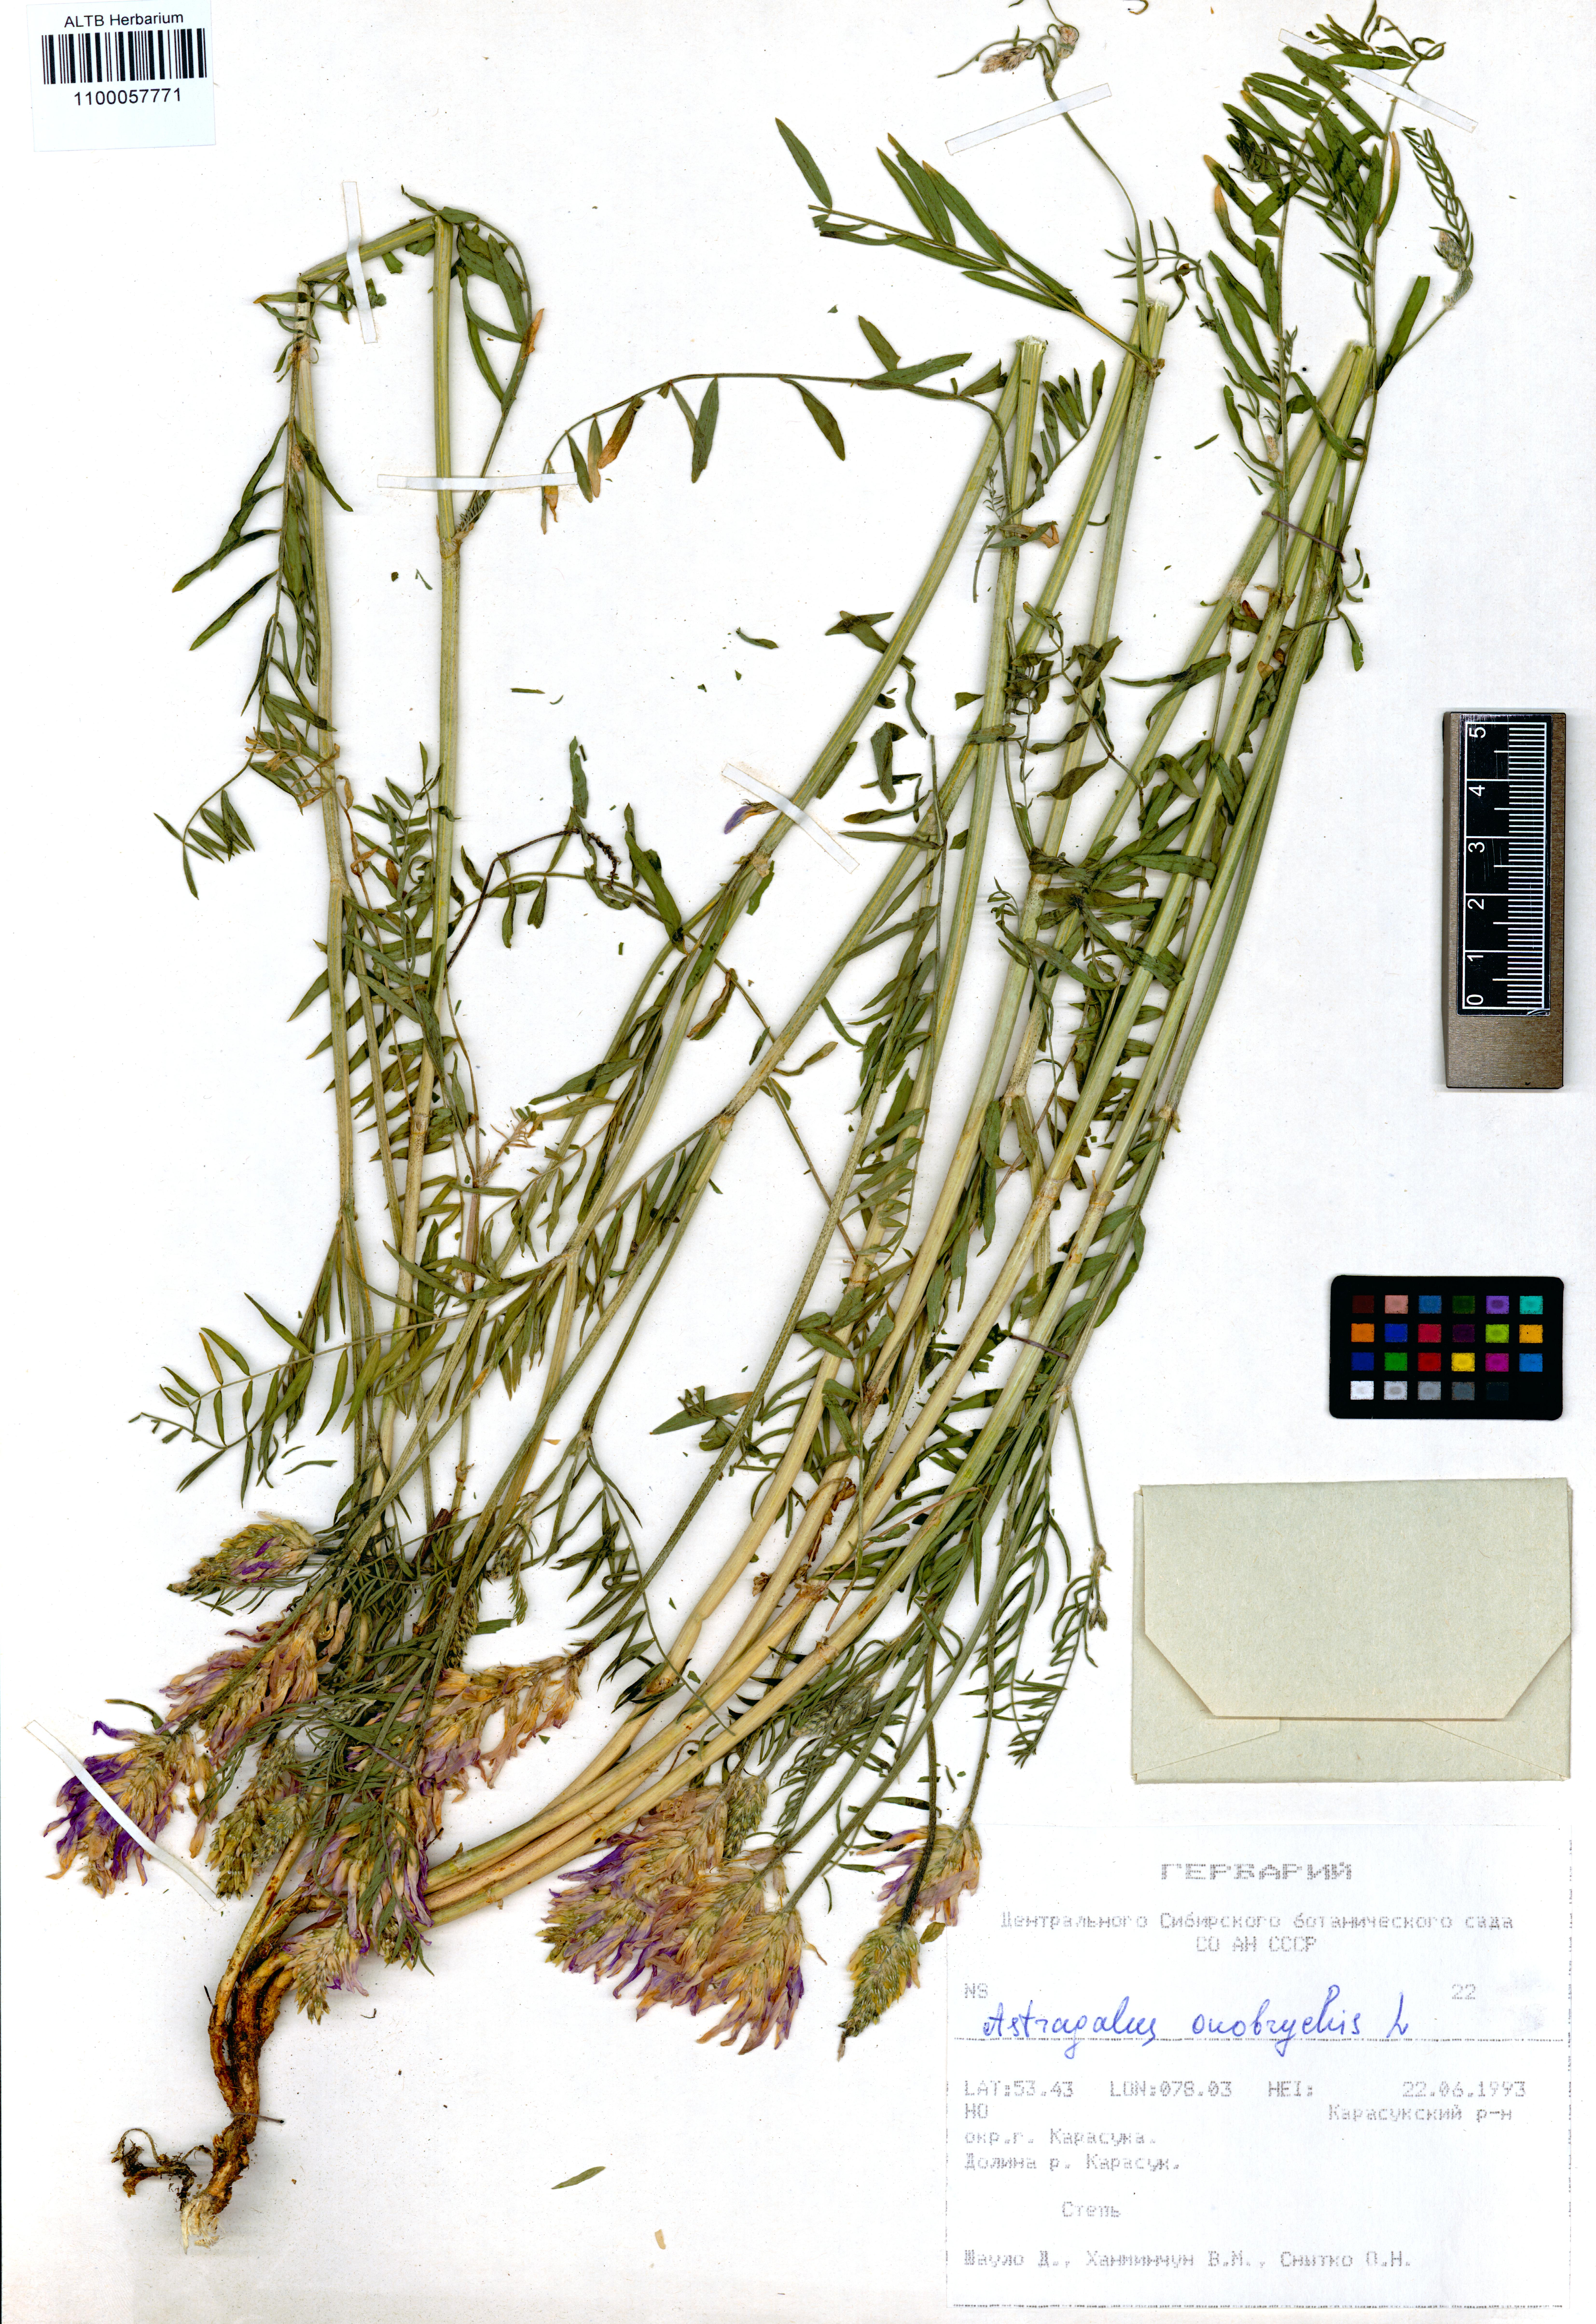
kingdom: Plantae
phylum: Tracheophyta
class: Magnoliopsida
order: Fabales
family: Fabaceae
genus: Astragalus
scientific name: Astragalus onobrychis
